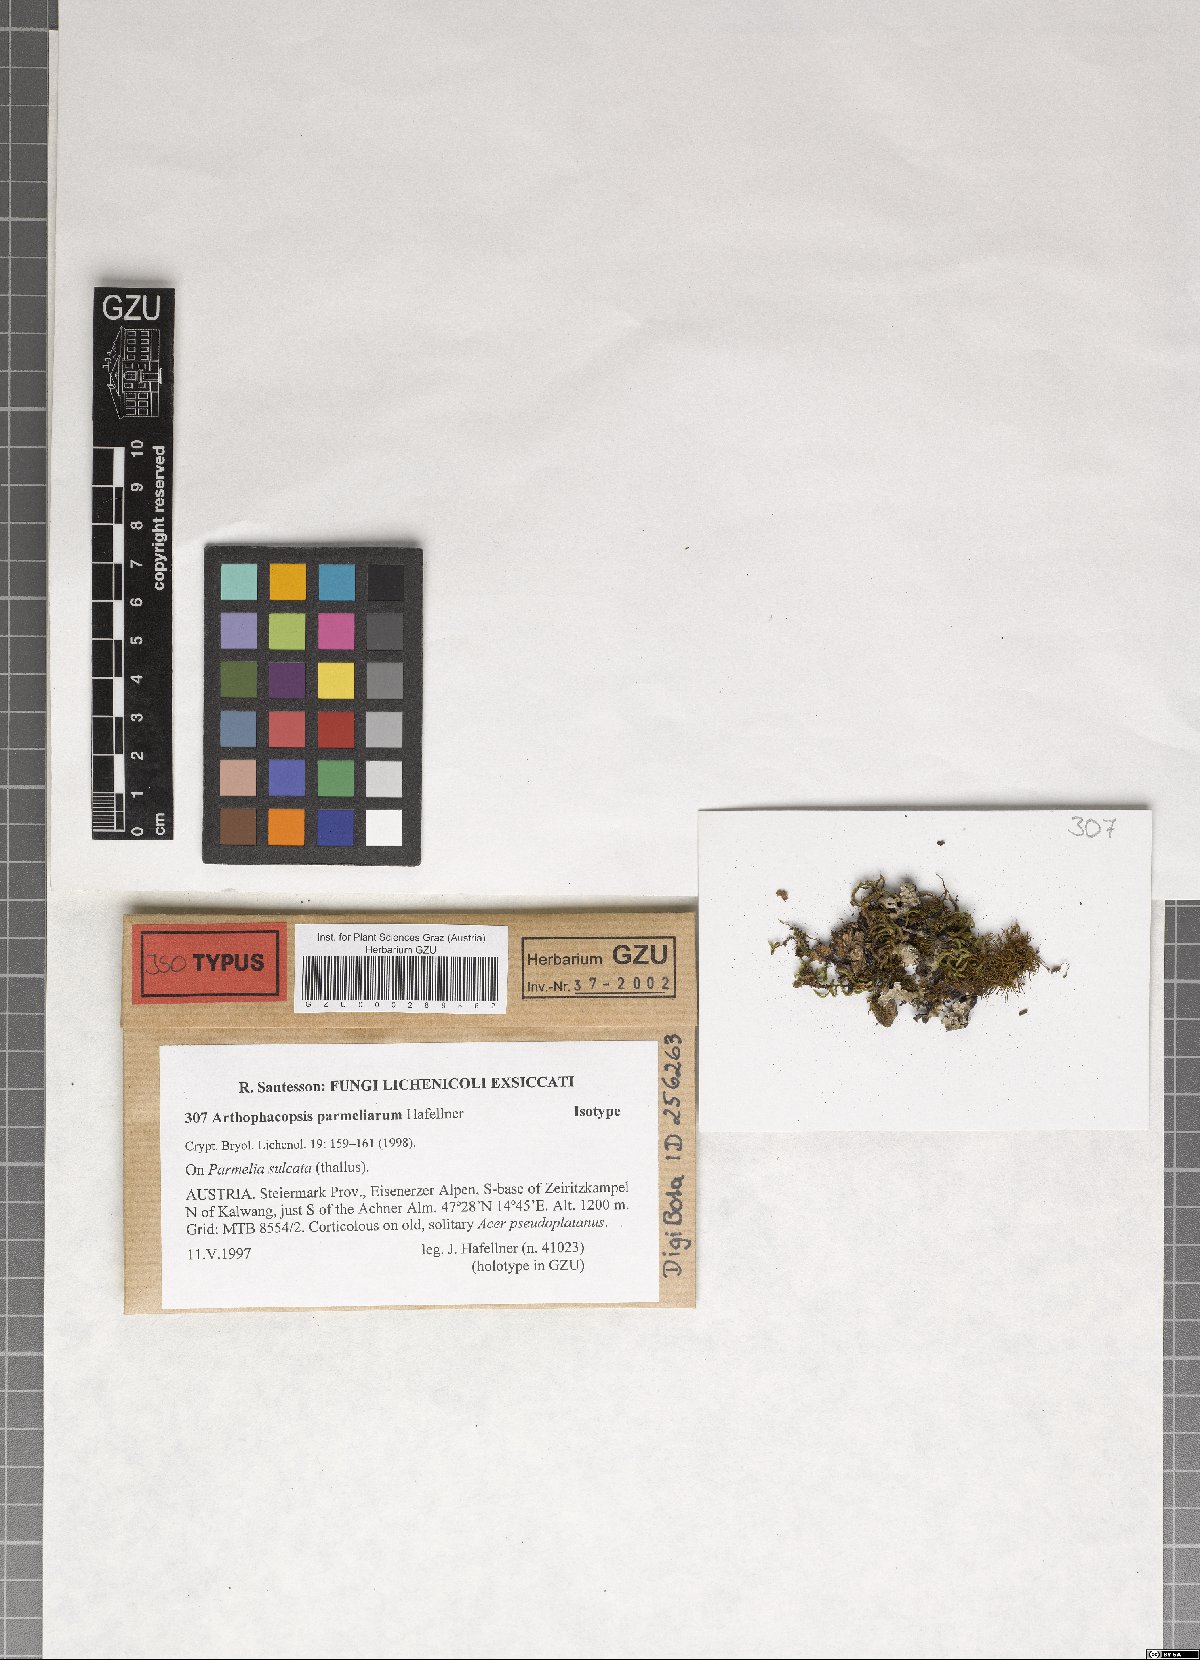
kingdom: Fungi
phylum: Ascomycota
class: Arthoniomycetes
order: Arthoniales
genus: Arthophacopsis
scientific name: Arthophacopsis parmeliarum
